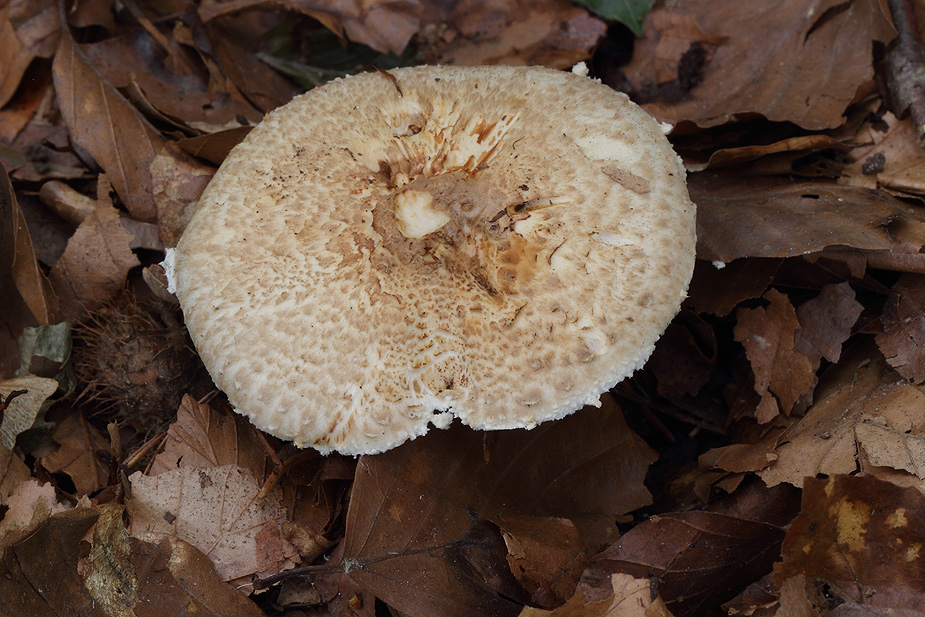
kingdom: Fungi
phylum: Basidiomycota
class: Agaricomycetes
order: Agaricales
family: Agaricaceae
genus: Agaricus
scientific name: Agaricus lanipes
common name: uldstokket champignon
